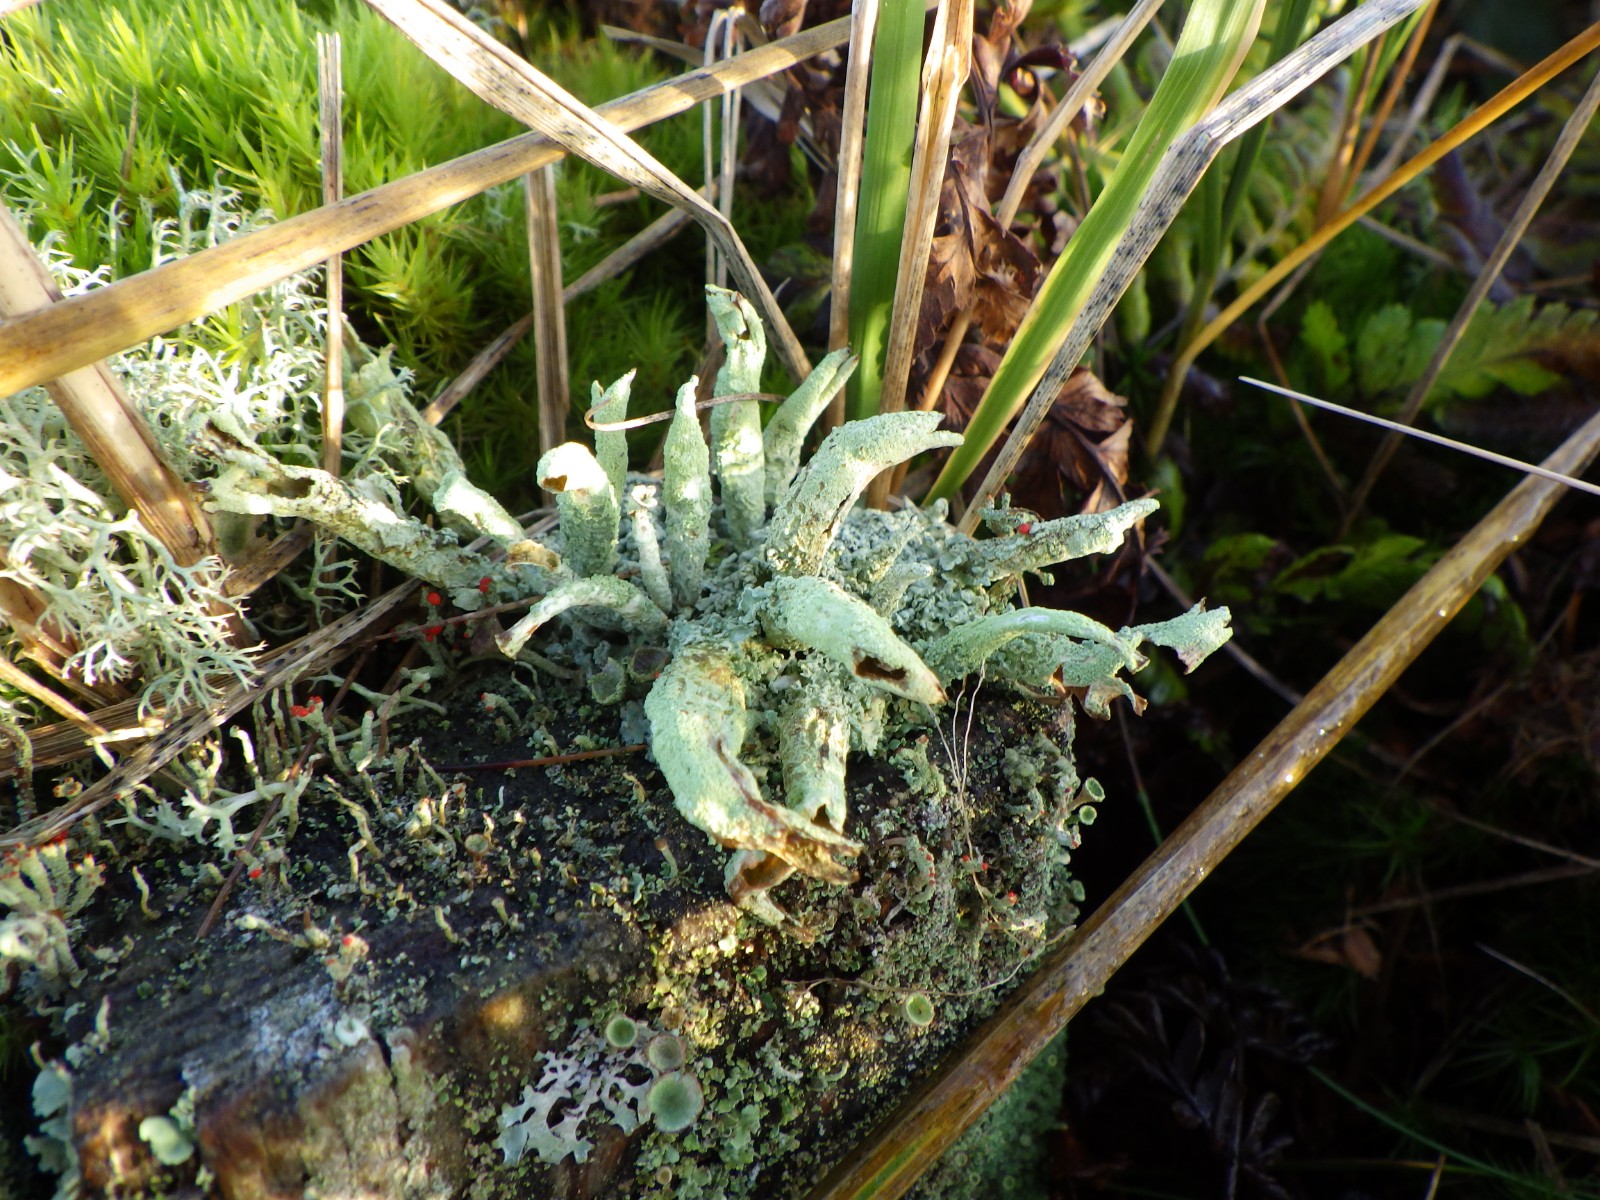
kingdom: Fungi
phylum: Ascomycota
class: Lecanoromycetes
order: Lecanorales
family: Cladoniaceae
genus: Cladonia
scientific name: Cladonia sulphurina
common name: opblæst bægerlav
